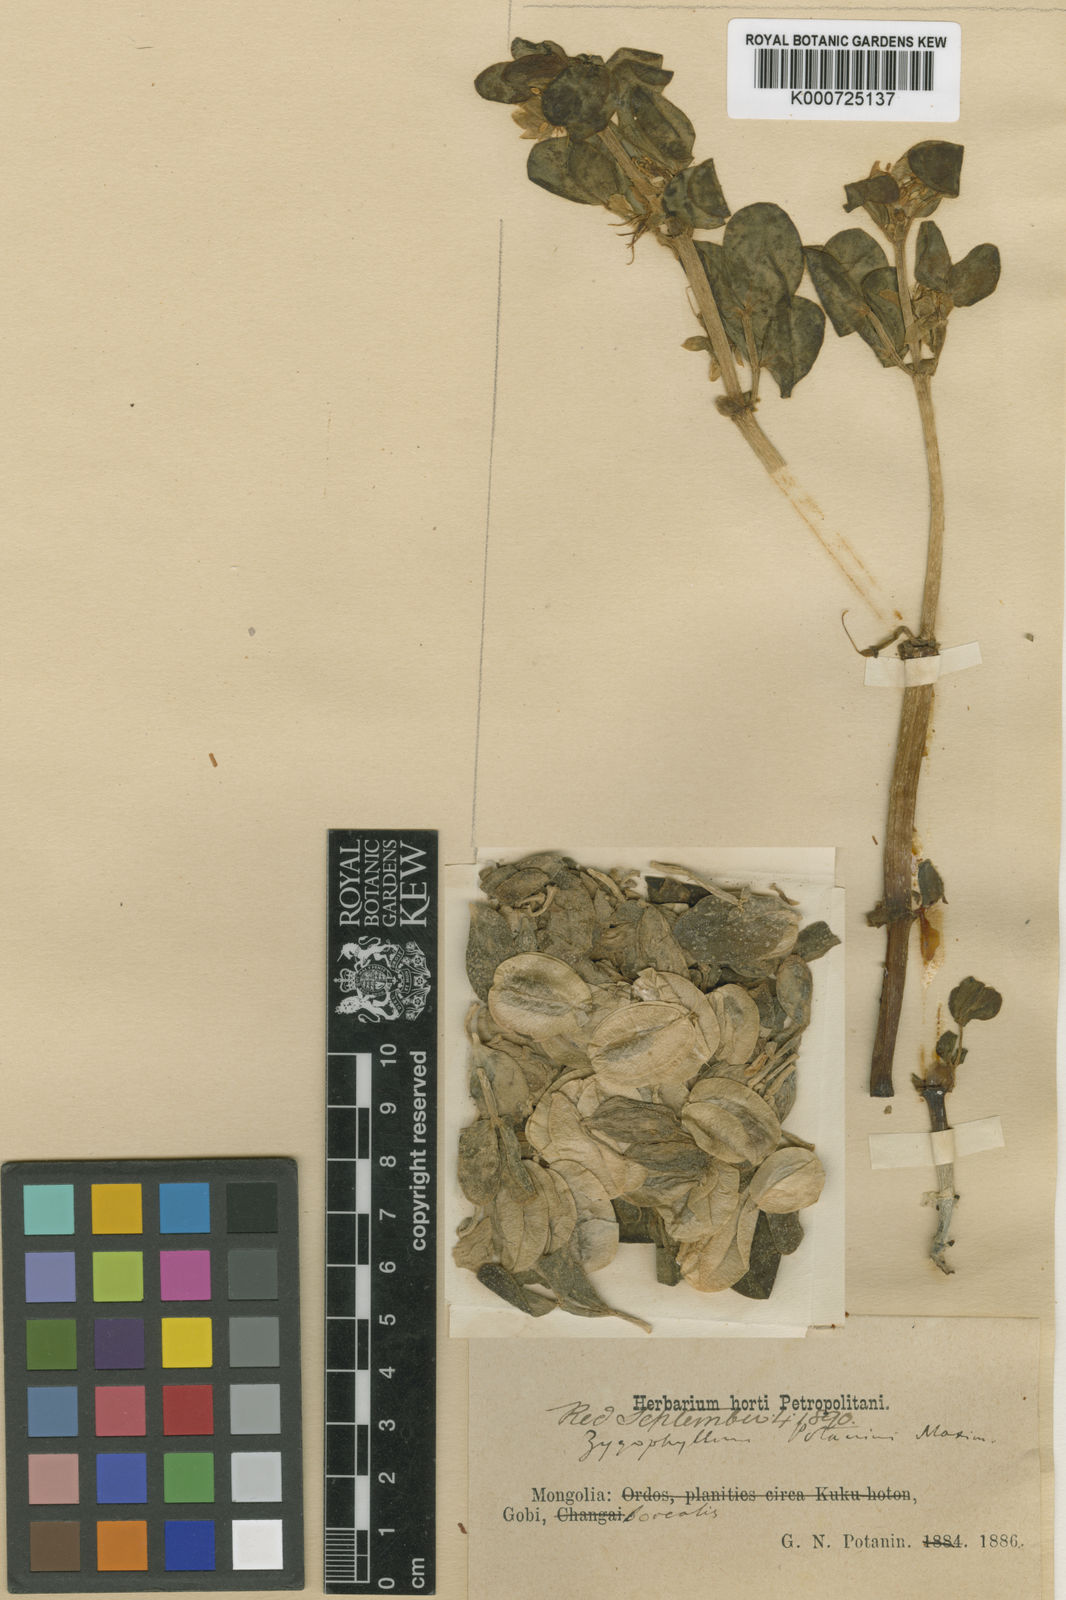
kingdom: Plantae
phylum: Tracheophyta
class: Magnoliopsida
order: Zygophyllales
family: Zygophyllaceae
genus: Zygophyllum
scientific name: Zygophyllum potaninii
